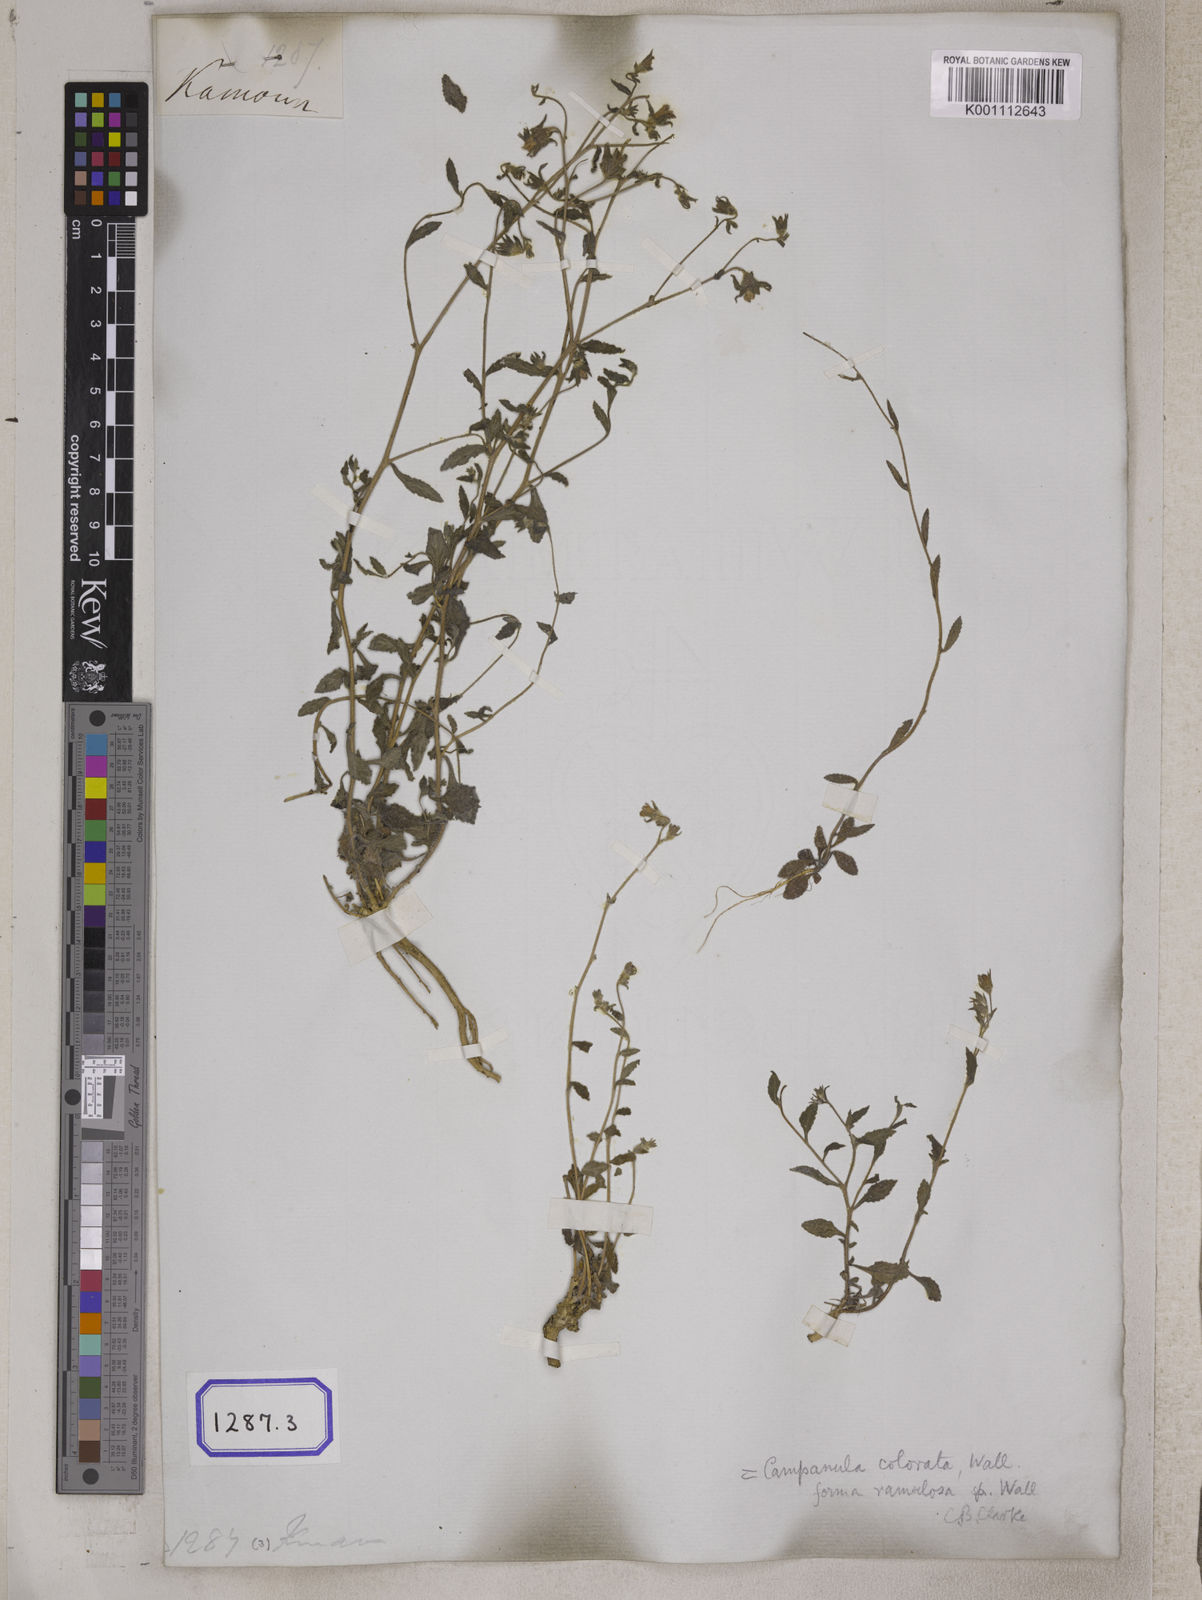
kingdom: Plantae
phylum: Tracheophyta
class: Magnoliopsida
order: Asterales
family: Campanulaceae
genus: Campanula
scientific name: Campanula pallida
